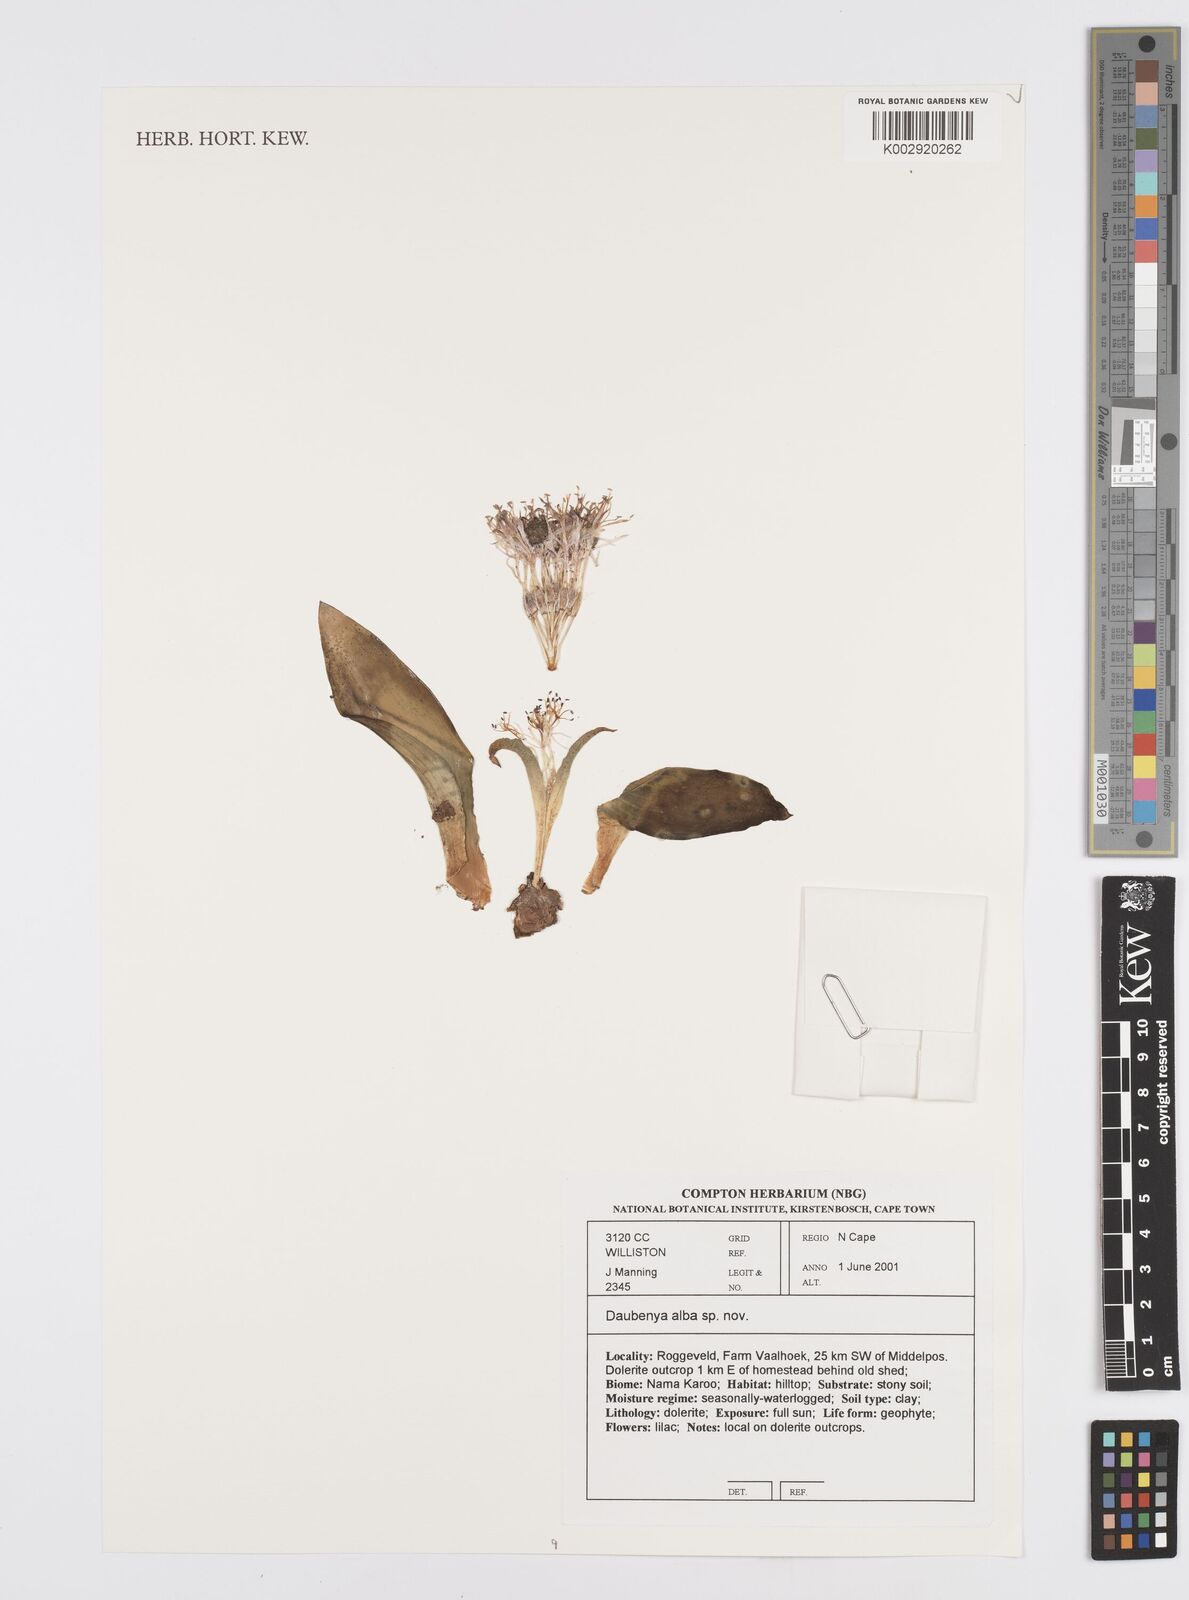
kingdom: Plantae
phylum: Tracheophyta
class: Liliopsida
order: Asparagales
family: Asparagaceae
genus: Daubenya
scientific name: Daubenya alba
